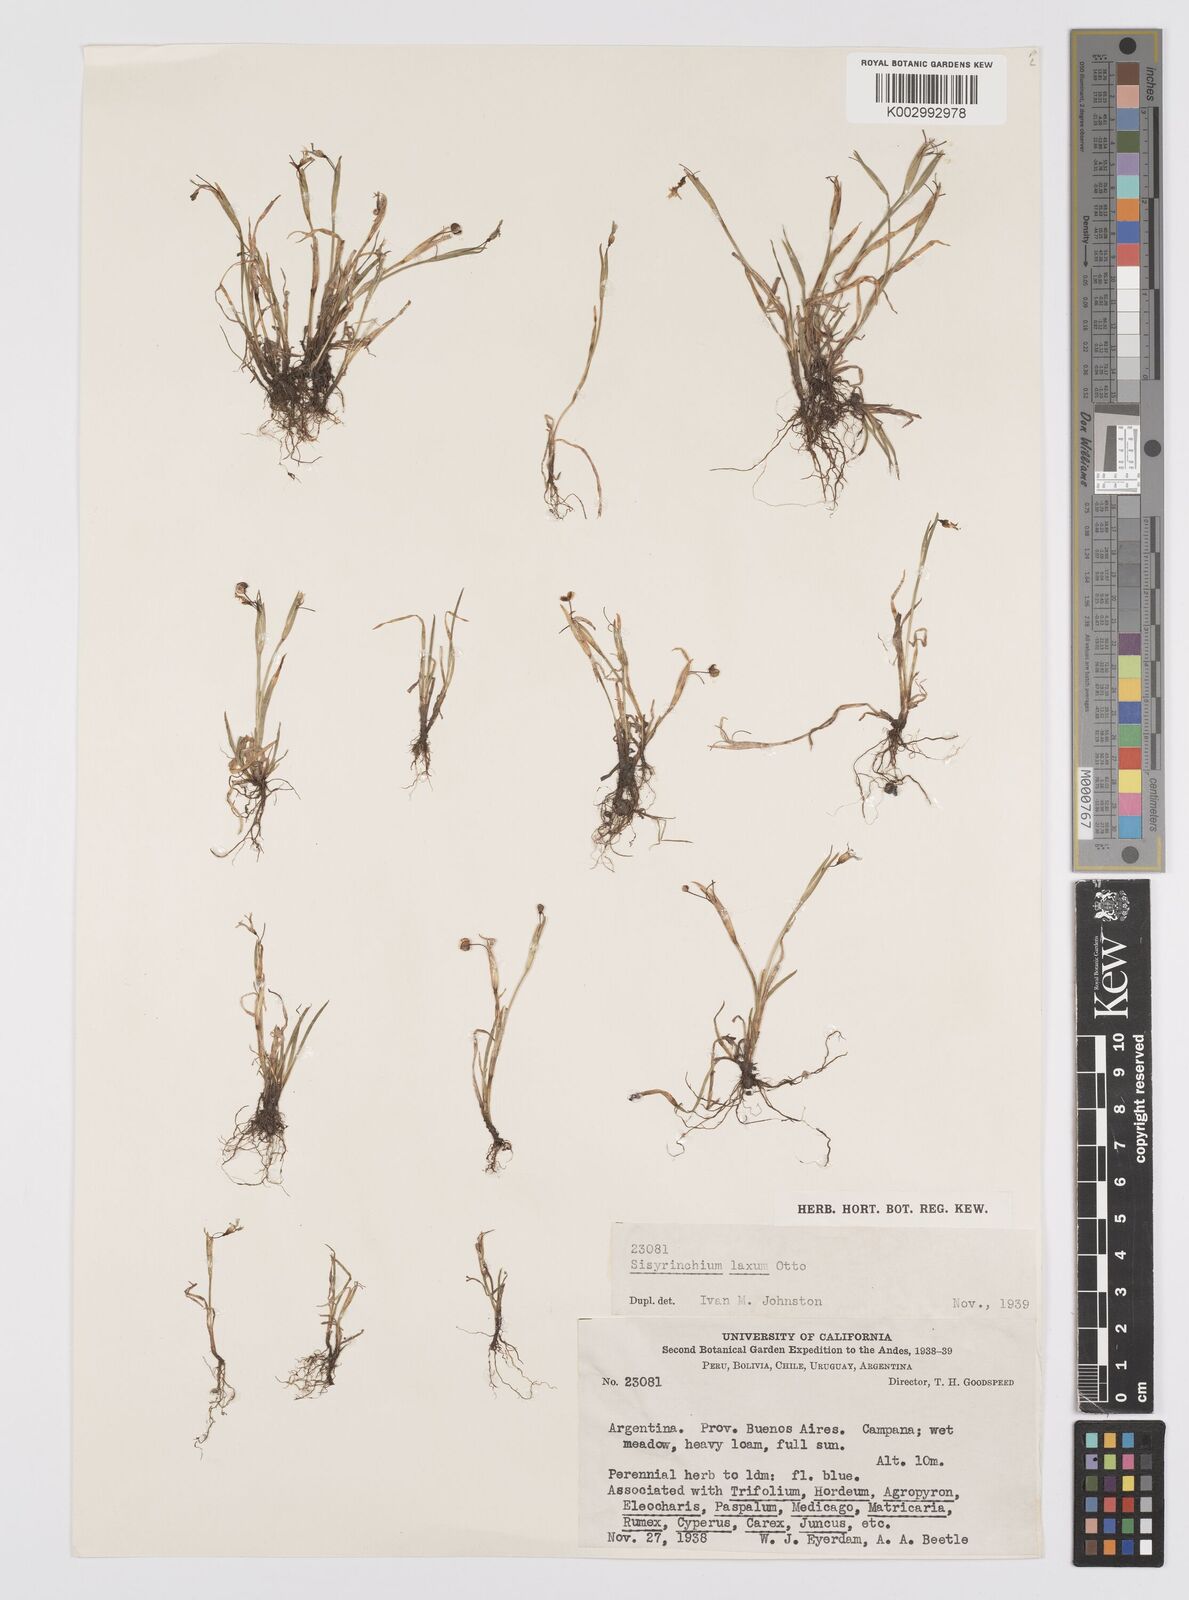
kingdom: Plantae
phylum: Tracheophyta
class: Liliopsida
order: Asparagales
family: Iridaceae
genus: Sisyrinchium
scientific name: Sisyrinchium laxum
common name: Veined yellow-eyed-grass
